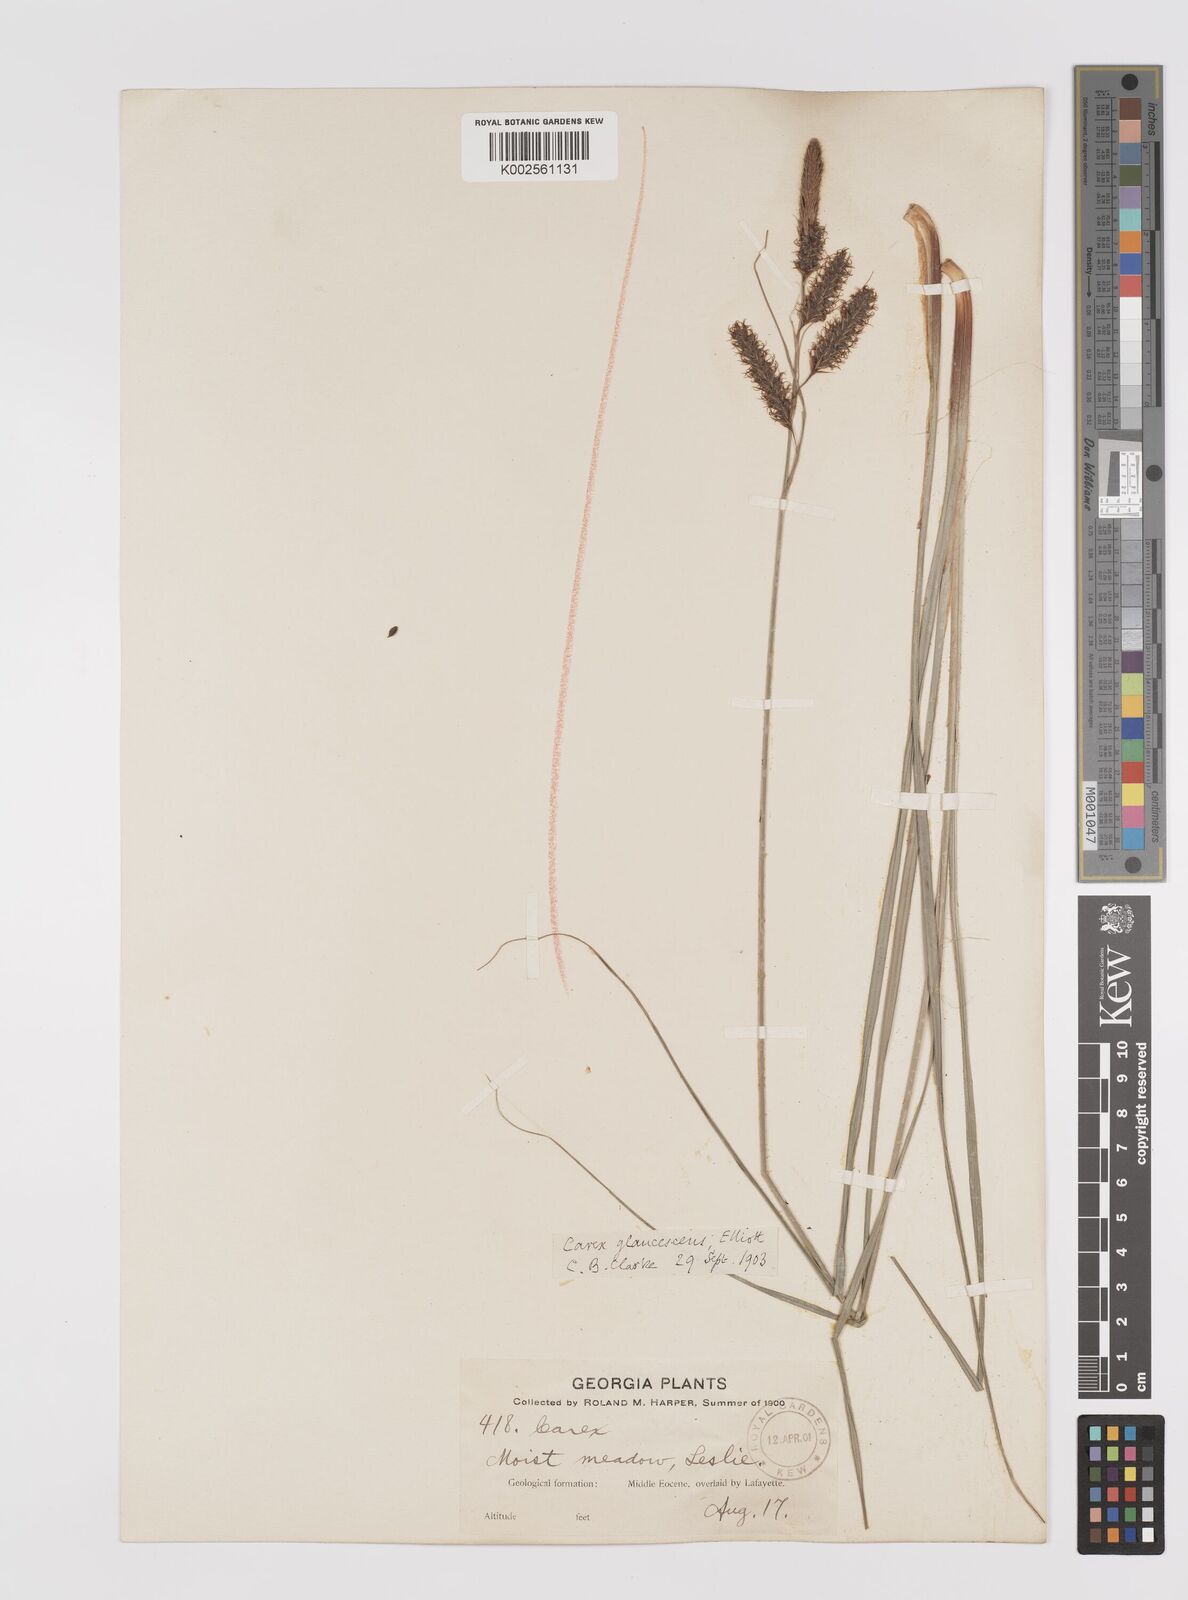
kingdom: Plantae
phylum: Tracheophyta
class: Liliopsida
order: Poales
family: Cyperaceae
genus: Carex
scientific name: Carex glaucescens
